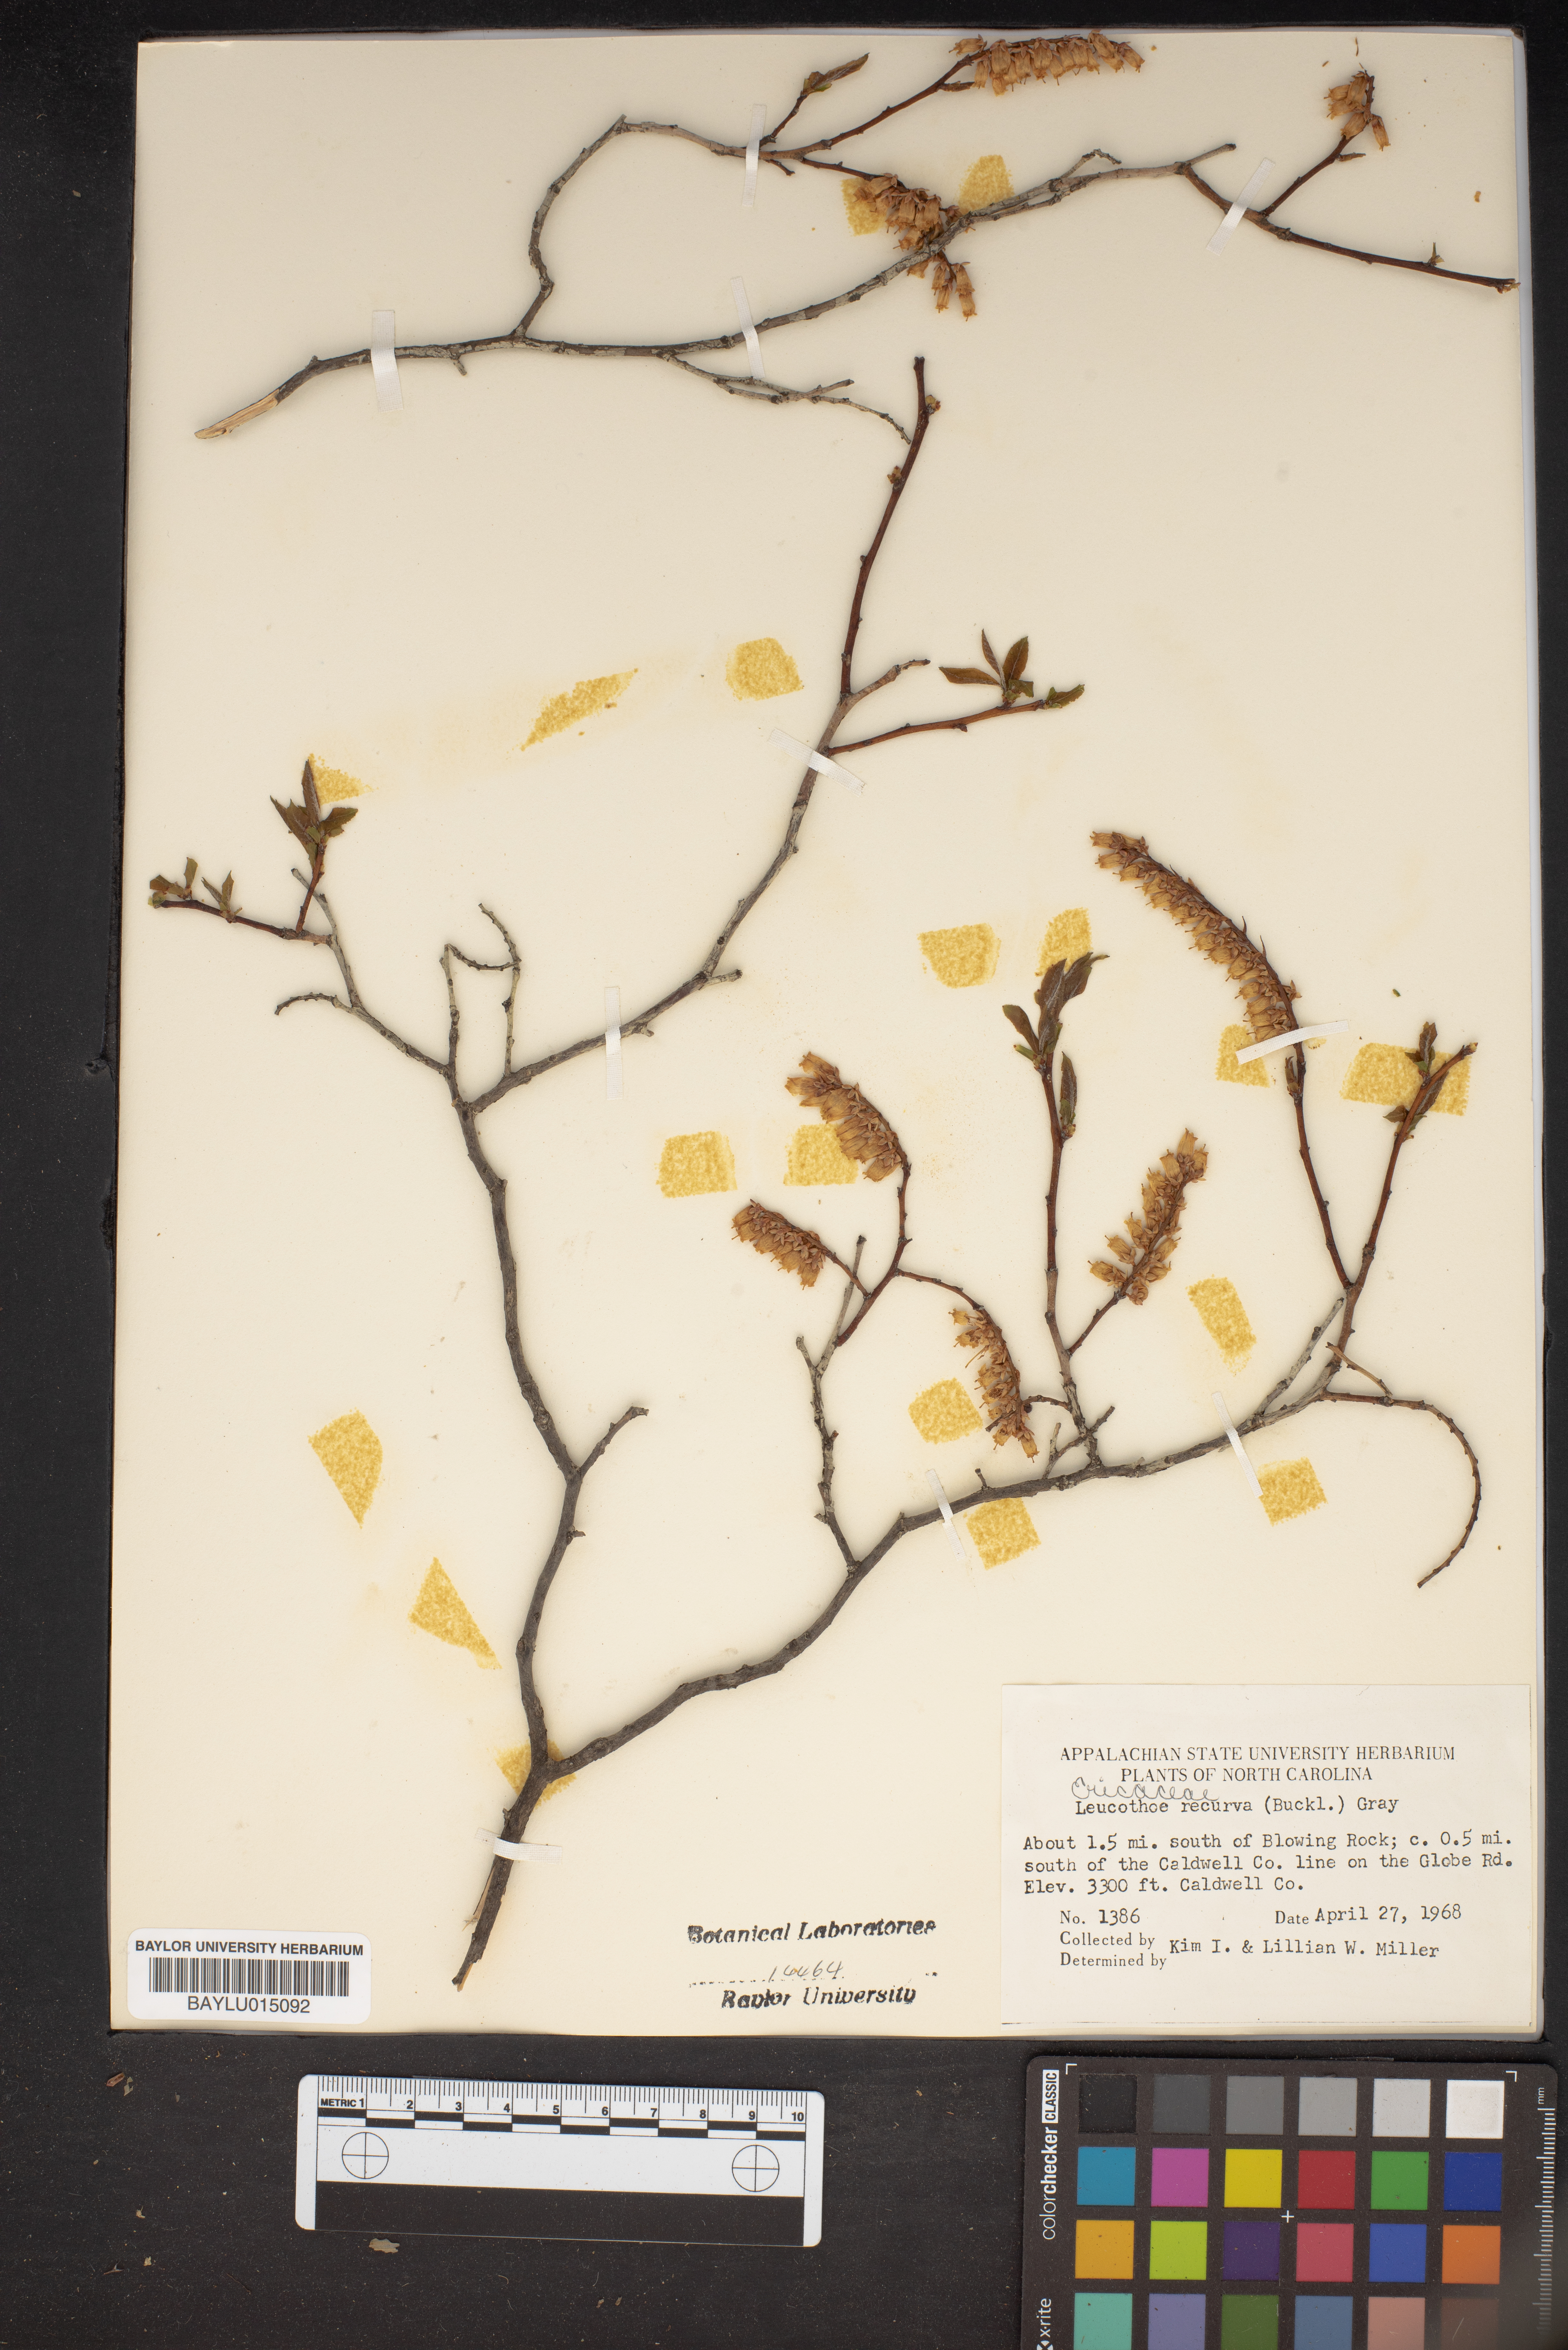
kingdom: Plantae
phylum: Tracheophyta
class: Magnoliopsida
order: Ericales
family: Ericaceae
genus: Eubotrys
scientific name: Eubotrys recurva
